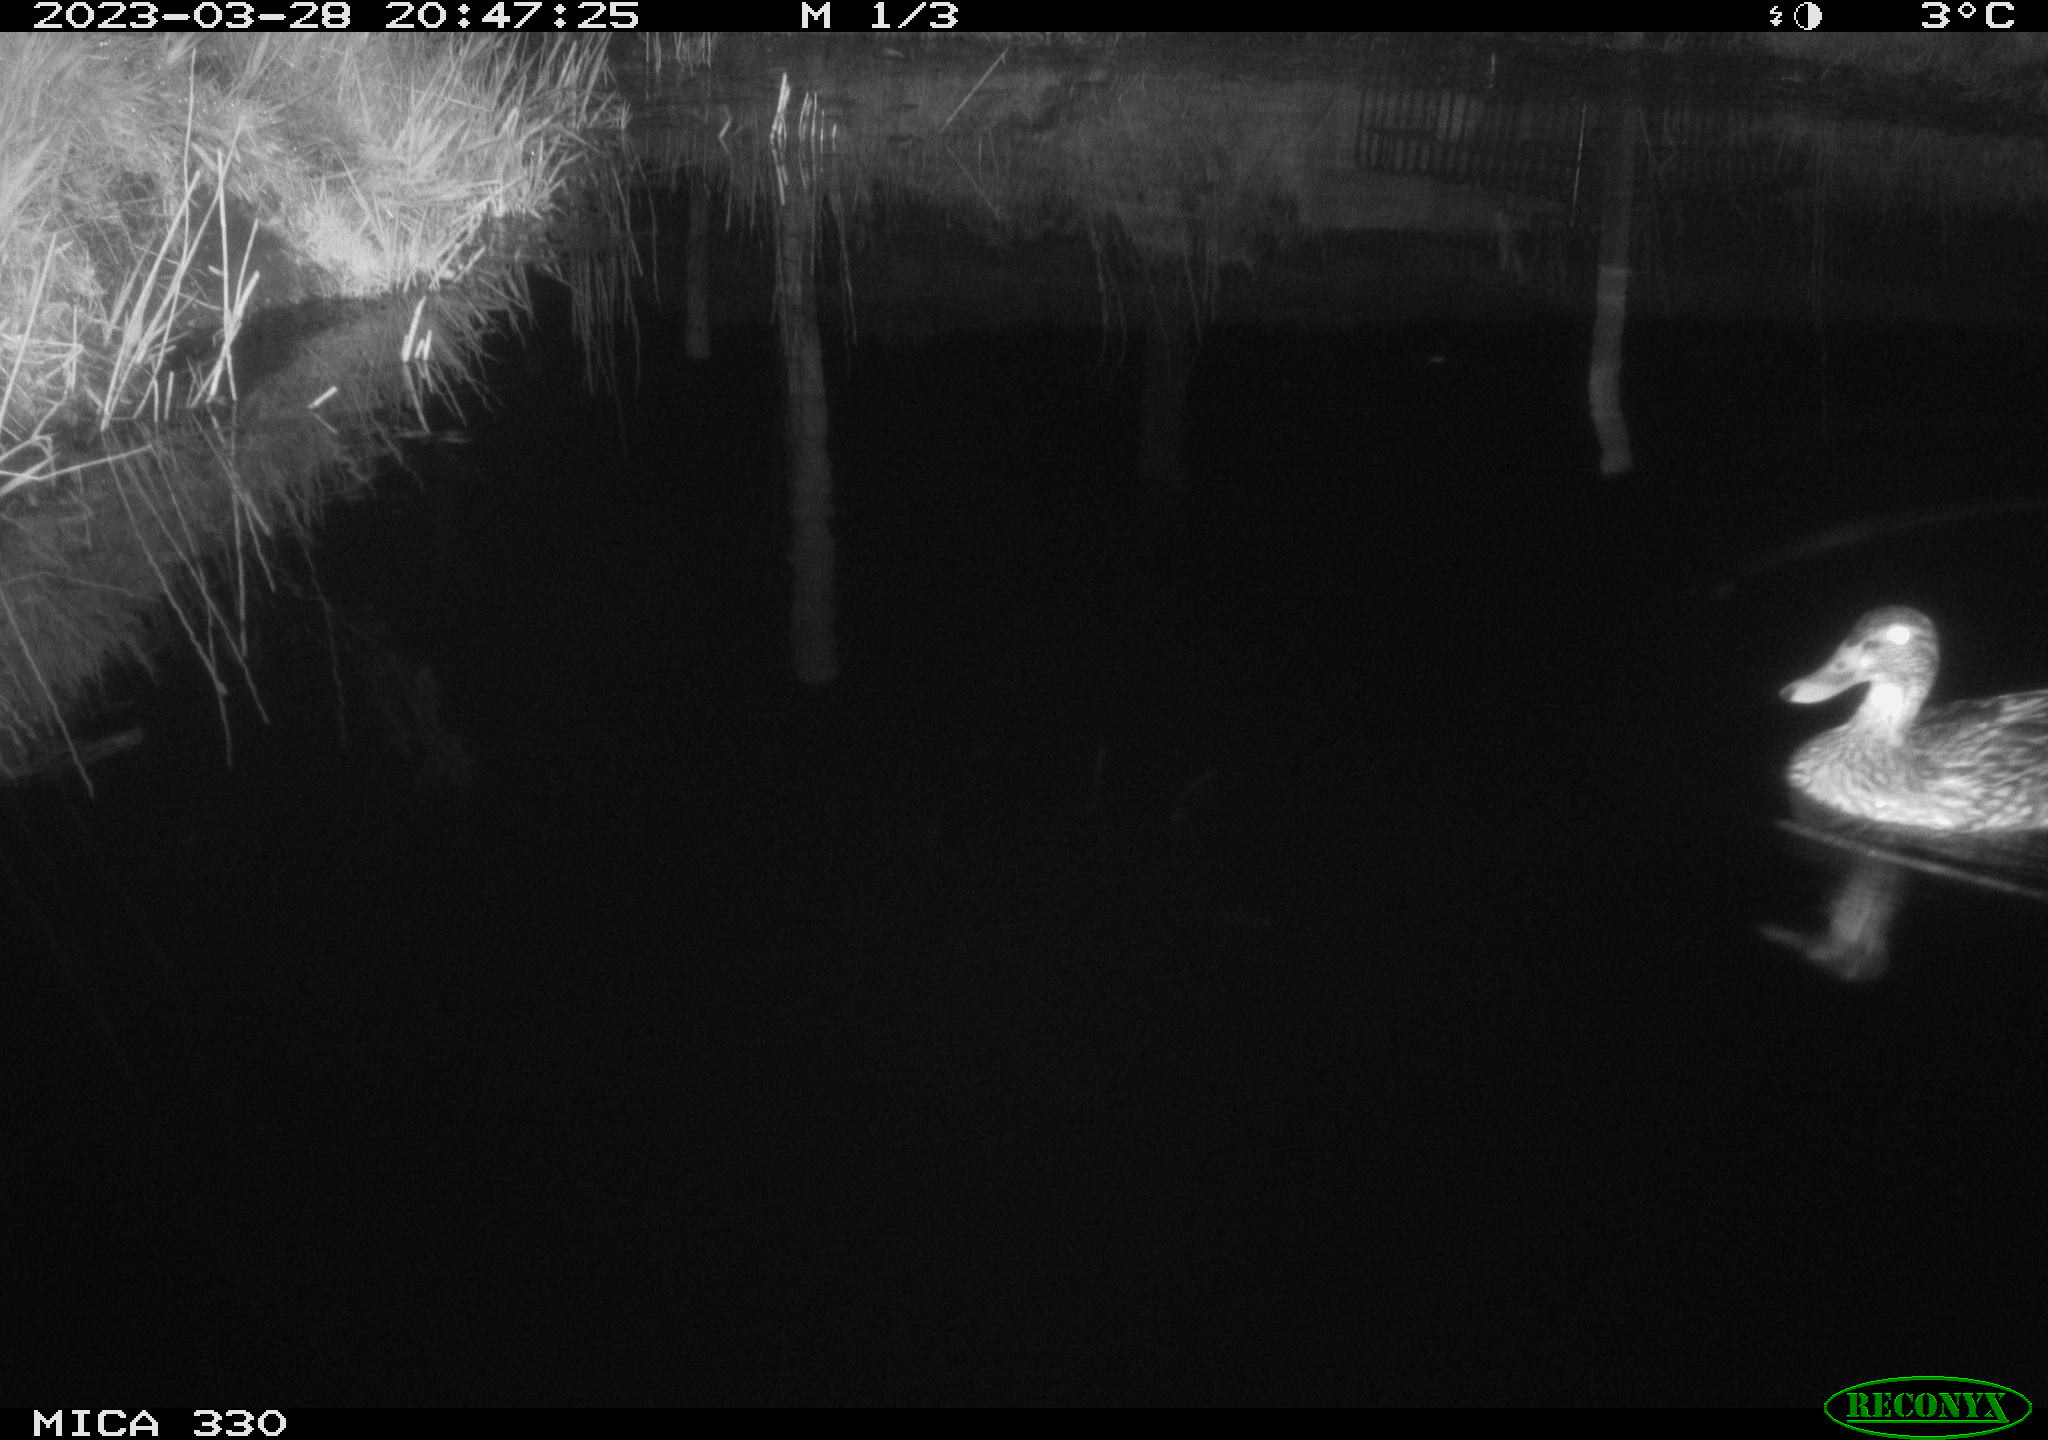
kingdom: Animalia
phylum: Chordata
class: Aves
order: Anseriformes
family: Anatidae
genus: Anas
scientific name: Anas
